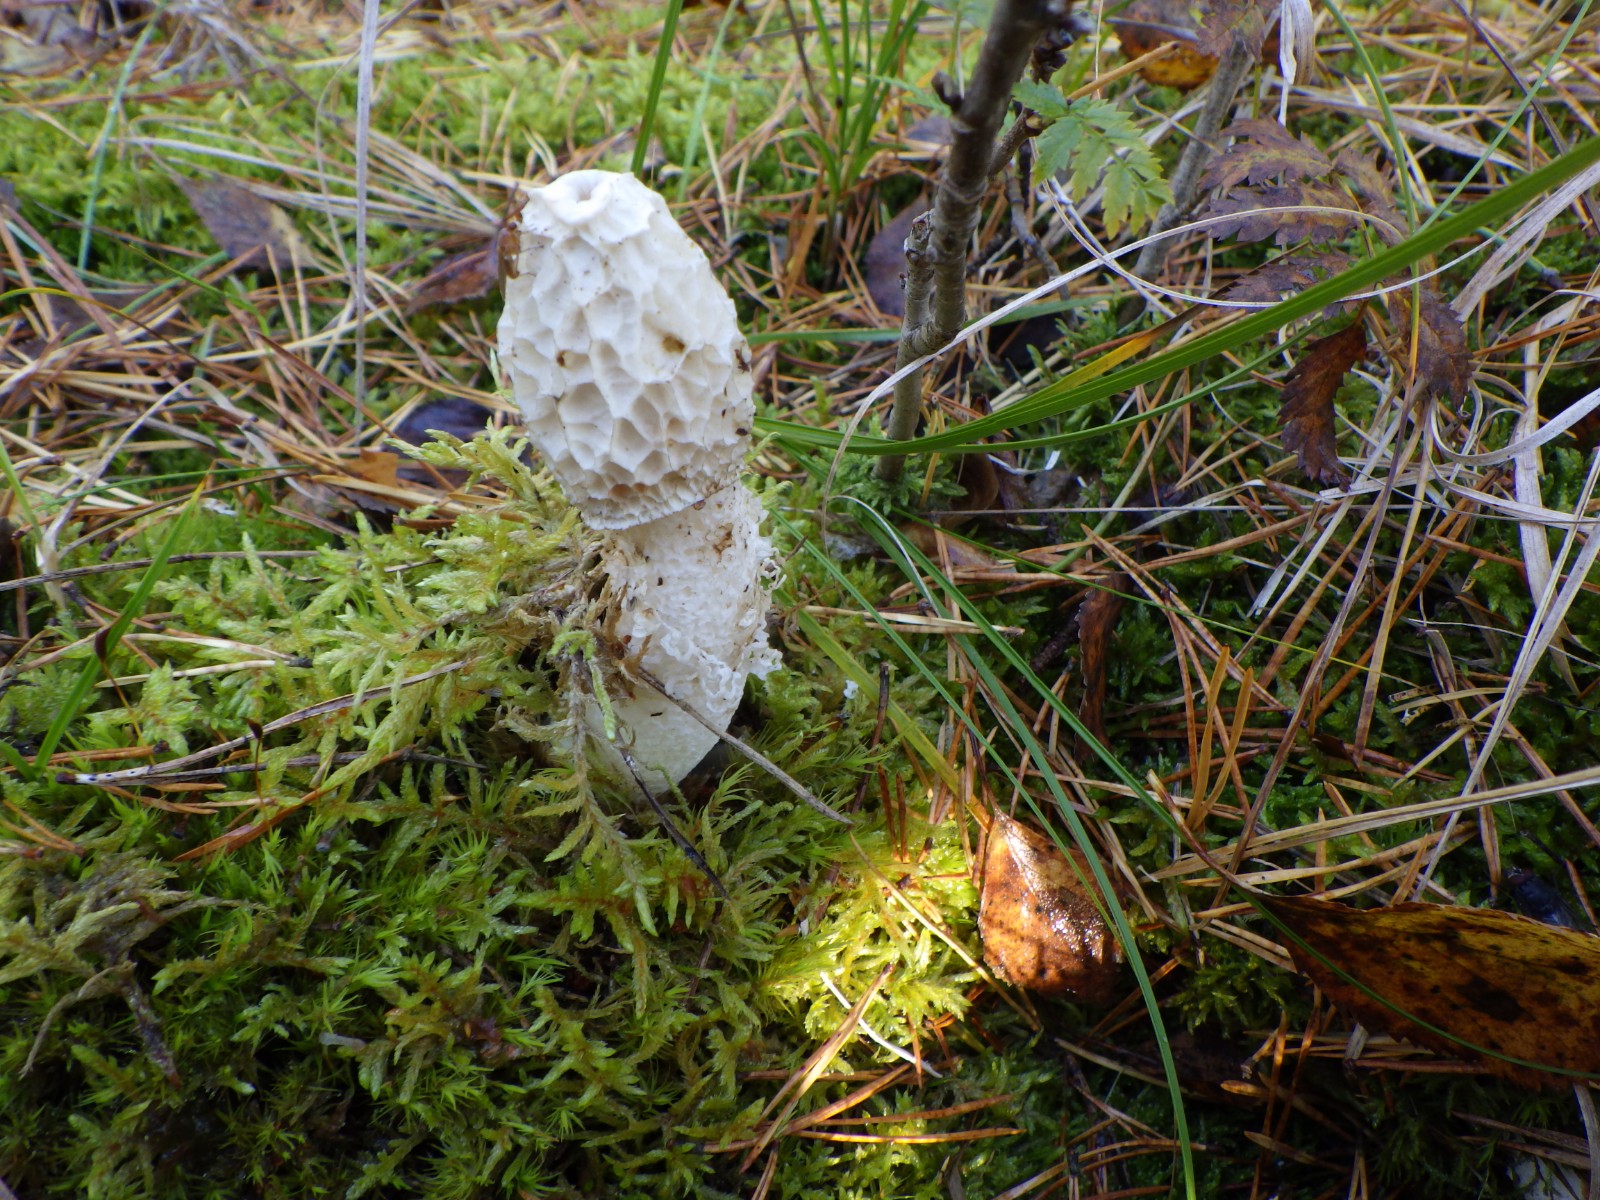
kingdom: Fungi
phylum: Basidiomycota
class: Agaricomycetes
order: Phallales
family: Phallaceae
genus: Phallus
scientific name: Phallus
